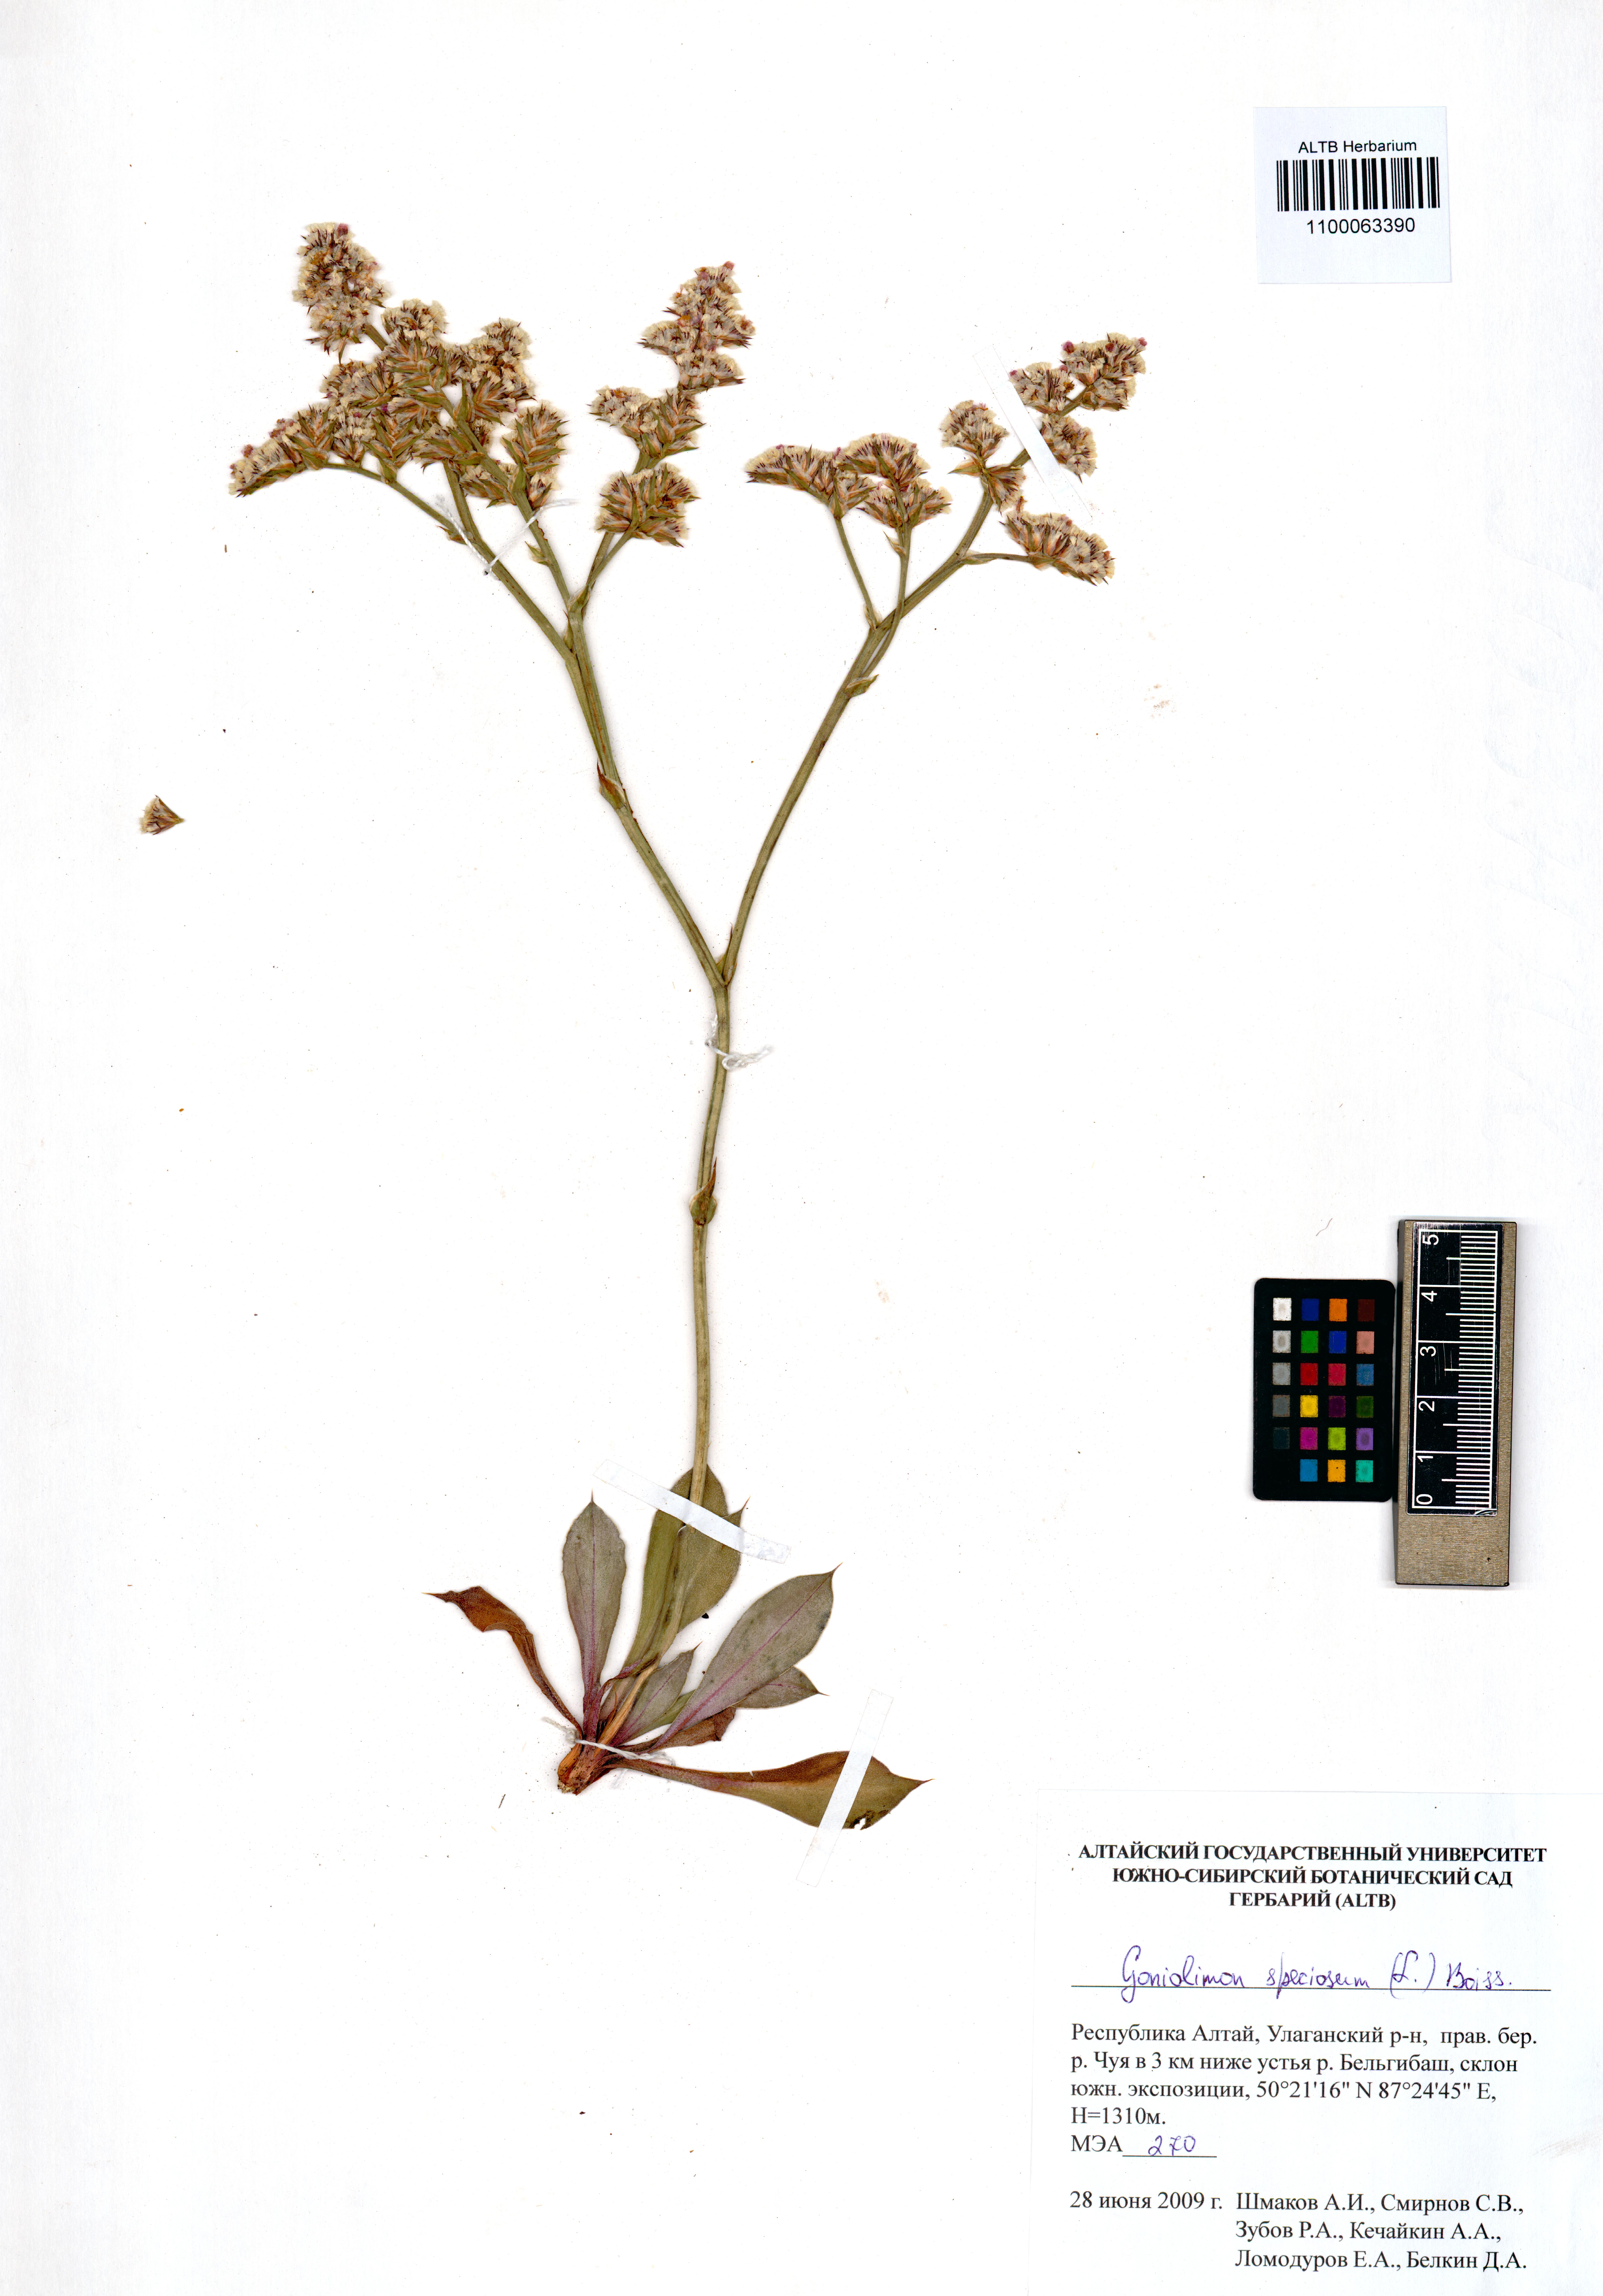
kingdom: Plantae
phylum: Tracheophyta
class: Magnoliopsida
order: Caryophyllales
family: Plumbaginaceae
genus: Goniolimon
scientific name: Goniolimon speciosum
